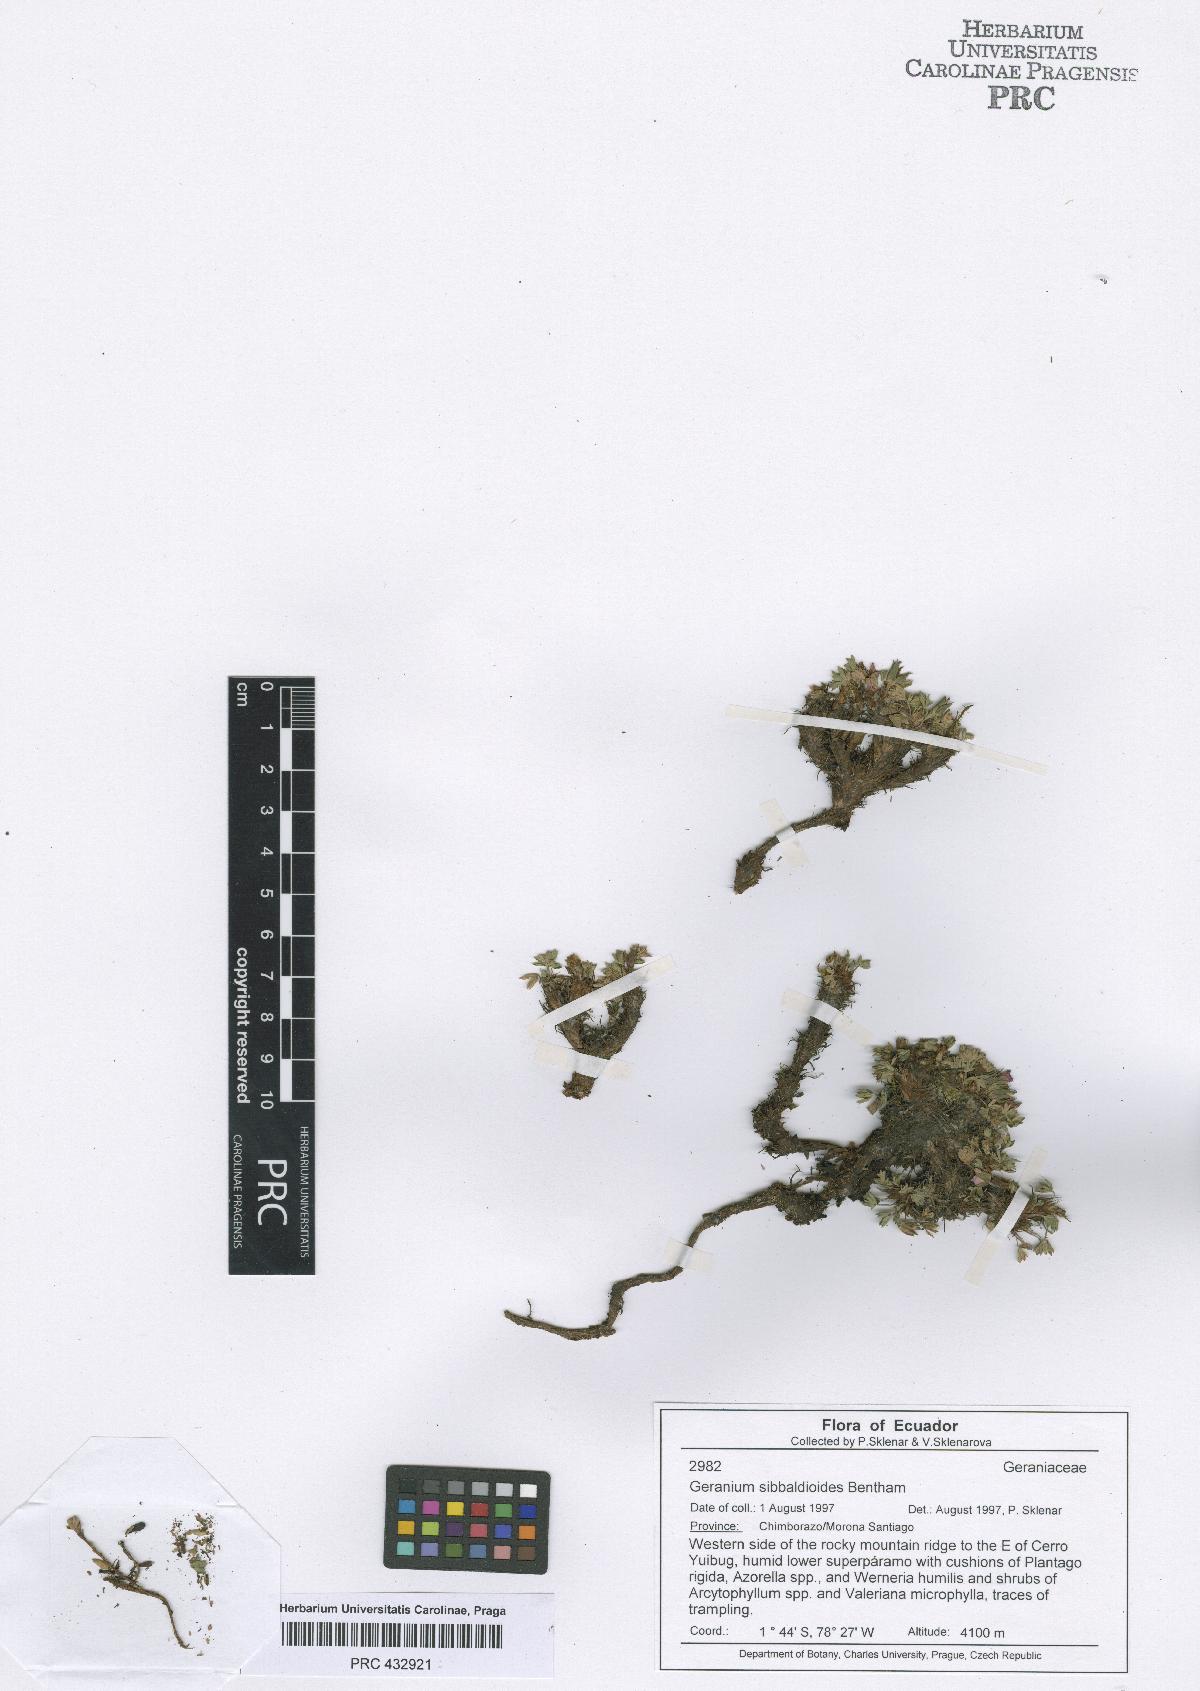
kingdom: Plantae
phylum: Tracheophyta
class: Magnoliopsida
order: Geraniales
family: Geraniaceae
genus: Geranium
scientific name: Geranium sibbaldioides
